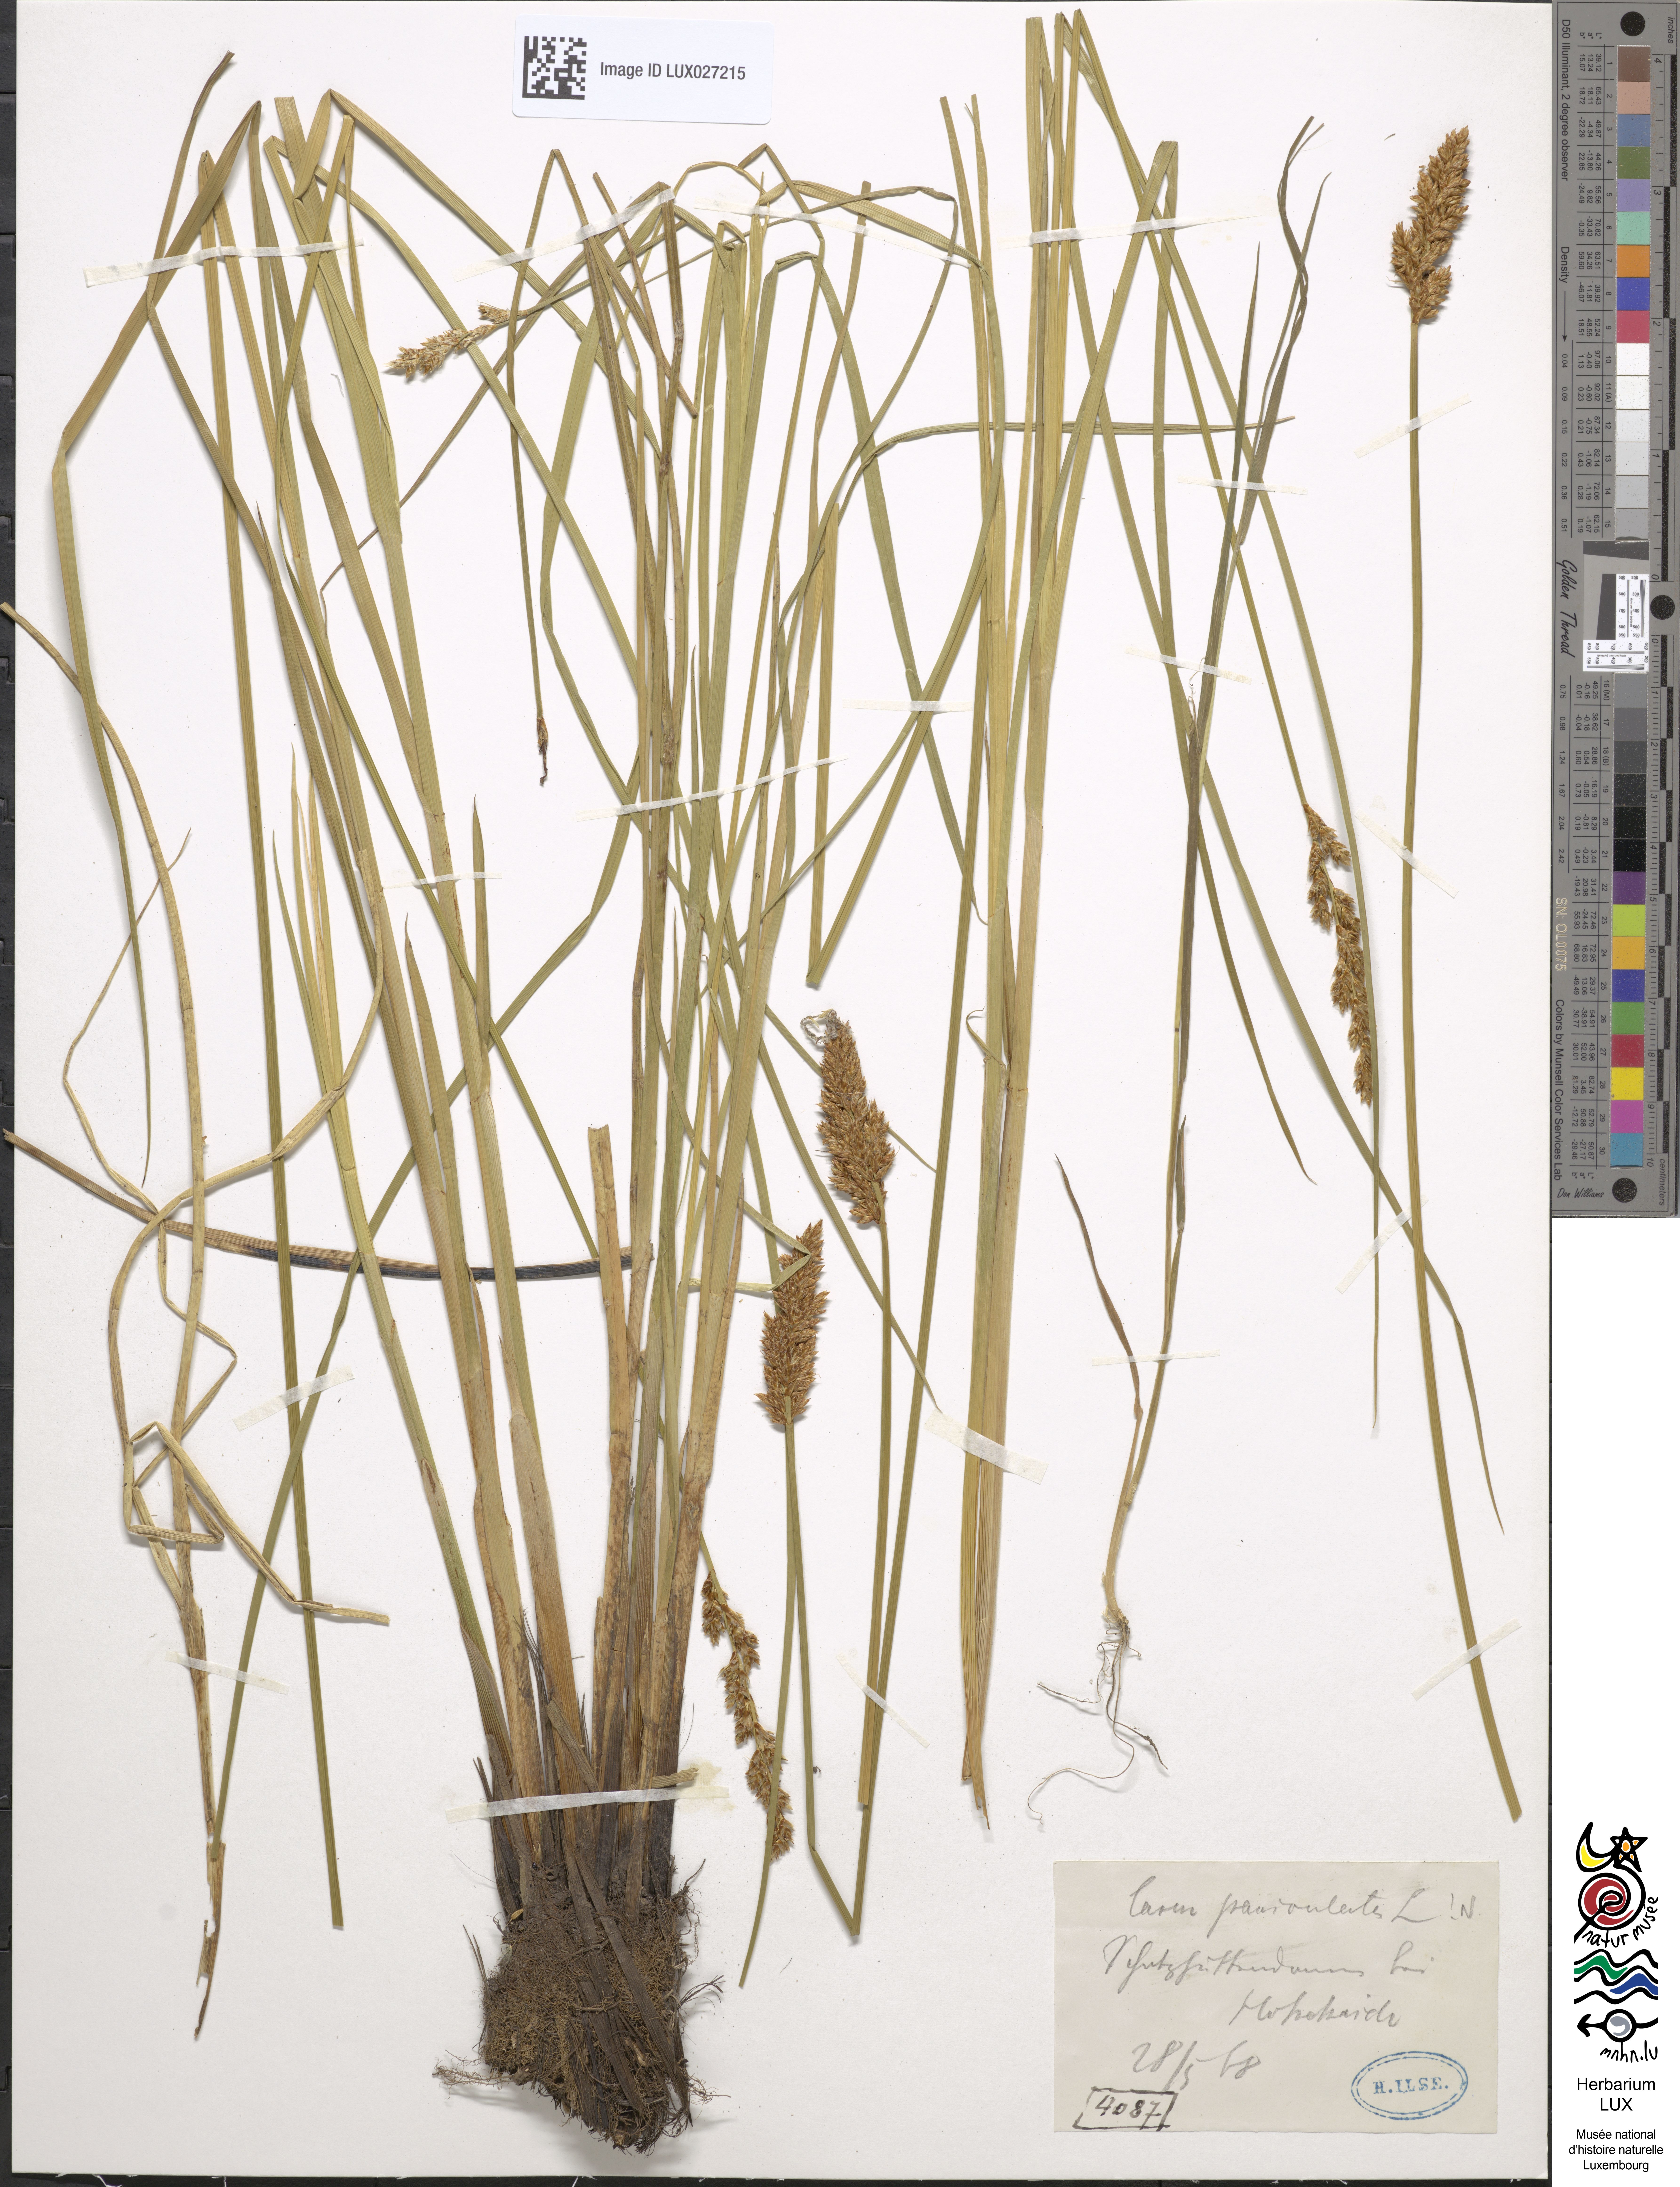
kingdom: Plantae
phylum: Tracheophyta
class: Liliopsida
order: Poales
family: Cyperaceae
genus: Carex
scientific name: Carex paniculata
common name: Greater tussock-sedge
